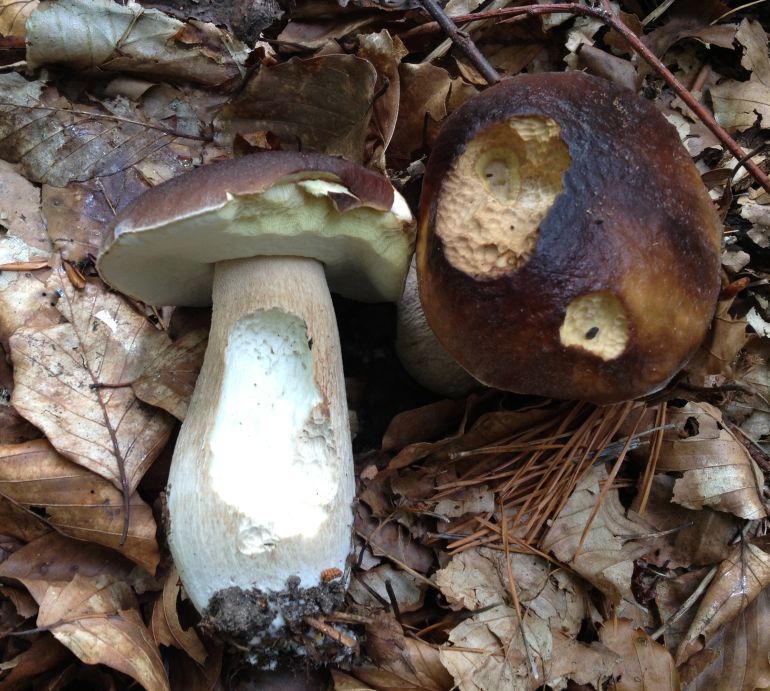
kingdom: Fungi
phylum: Basidiomycota
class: Agaricomycetes
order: Boletales
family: Boletaceae
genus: Boletus
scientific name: Boletus edulis
